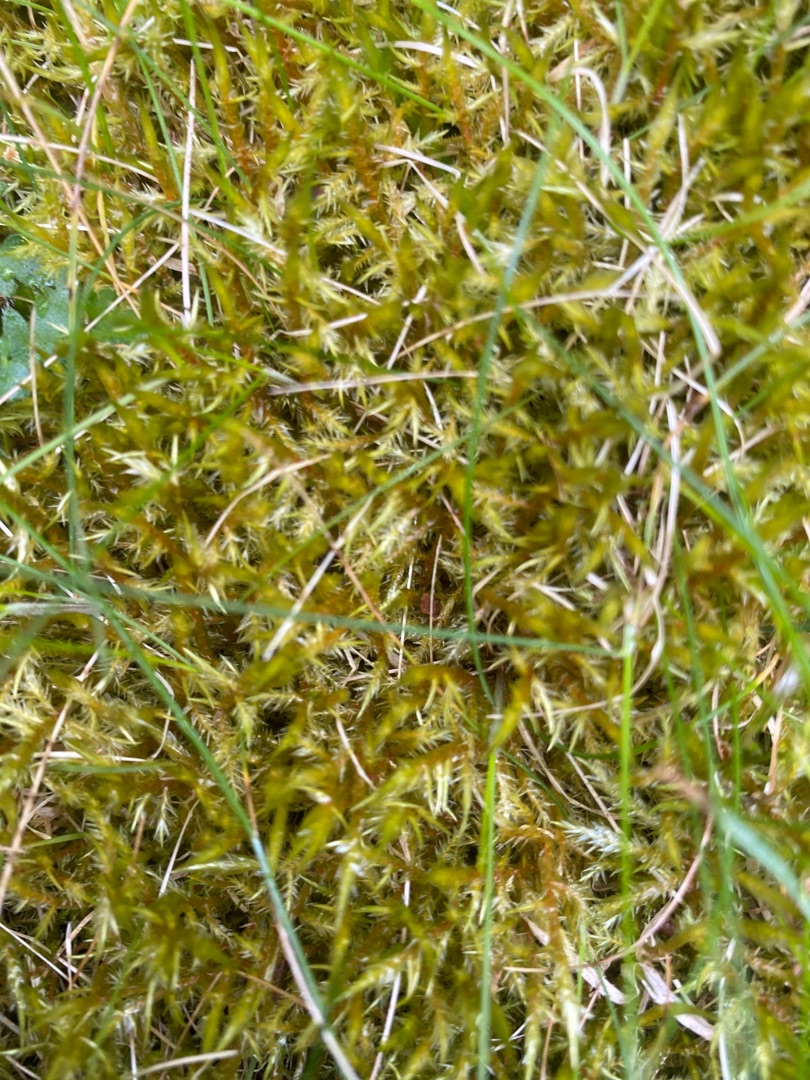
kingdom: Plantae
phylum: Bryophyta
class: Bryopsida
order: Hypnales
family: Pylaisiaceae
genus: Calliergonella
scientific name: Calliergonella cuspidata
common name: Spids spydmos
